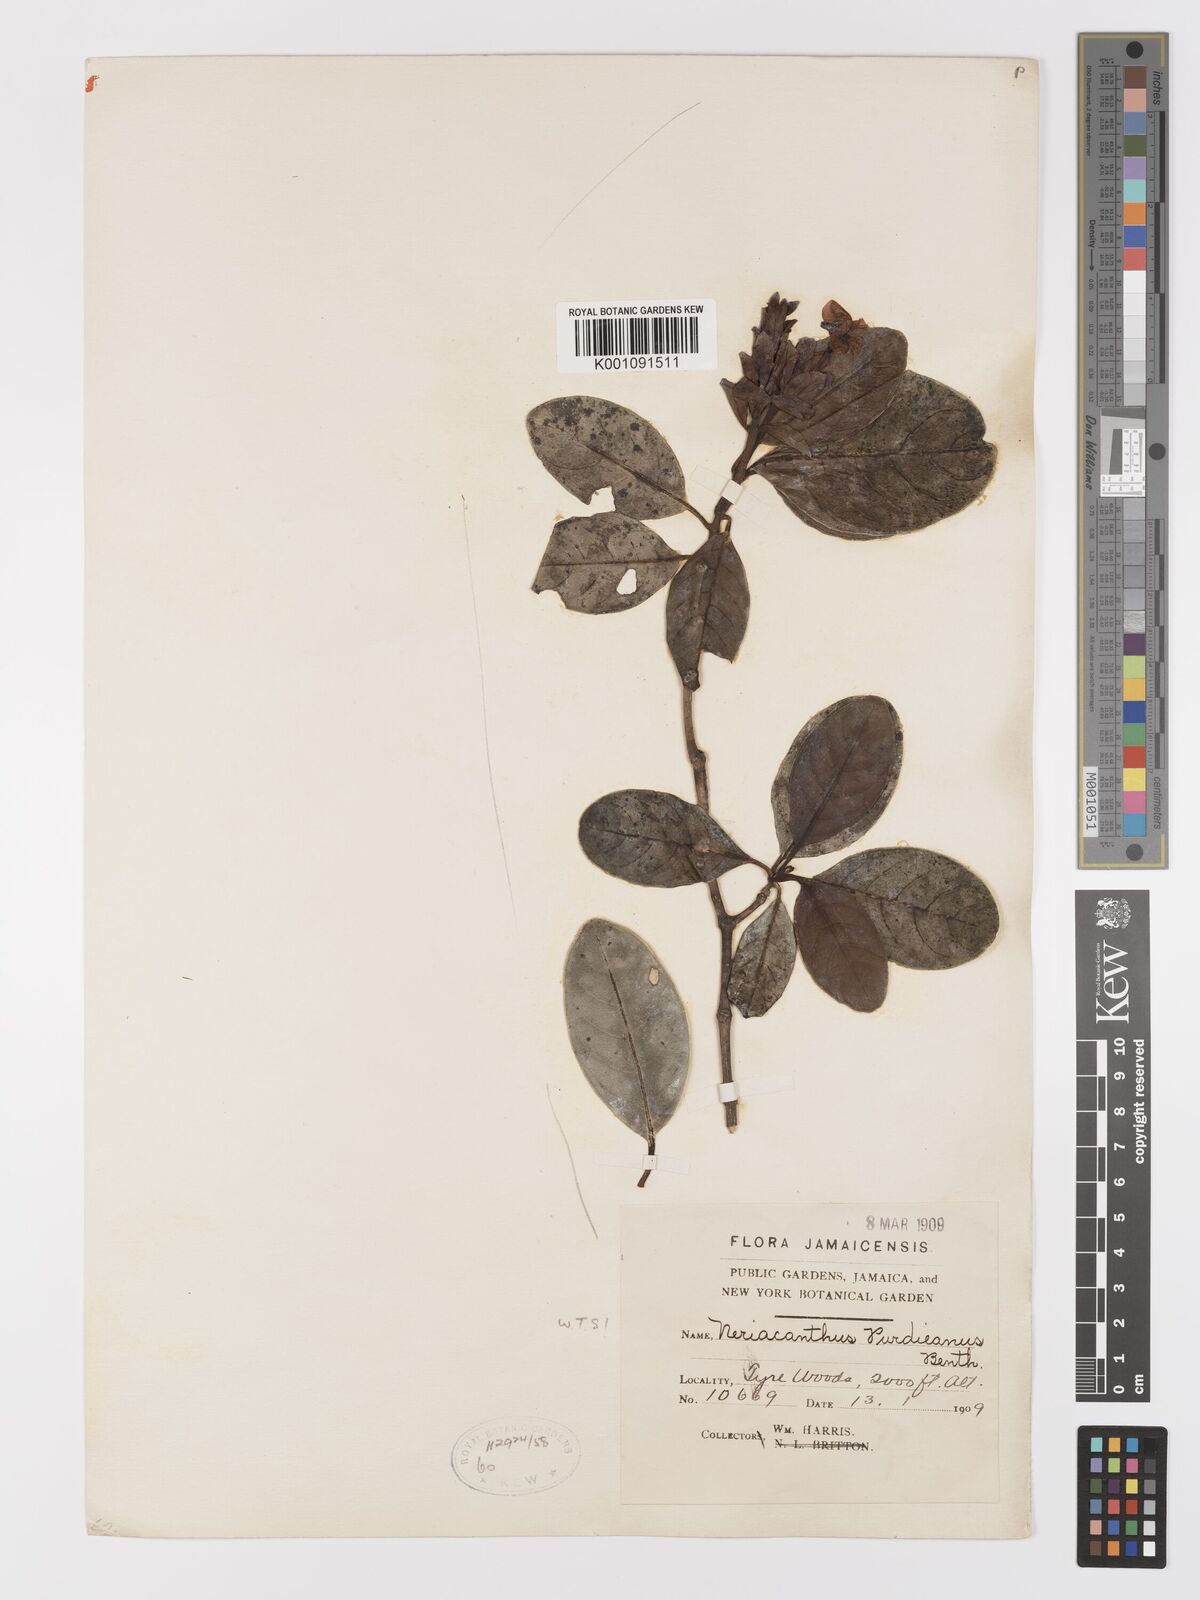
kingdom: Plantae
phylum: Tracheophyta
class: Magnoliopsida
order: Lamiales
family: Acanthaceae
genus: Neriacanthus
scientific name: Neriacanthus purdieanus
